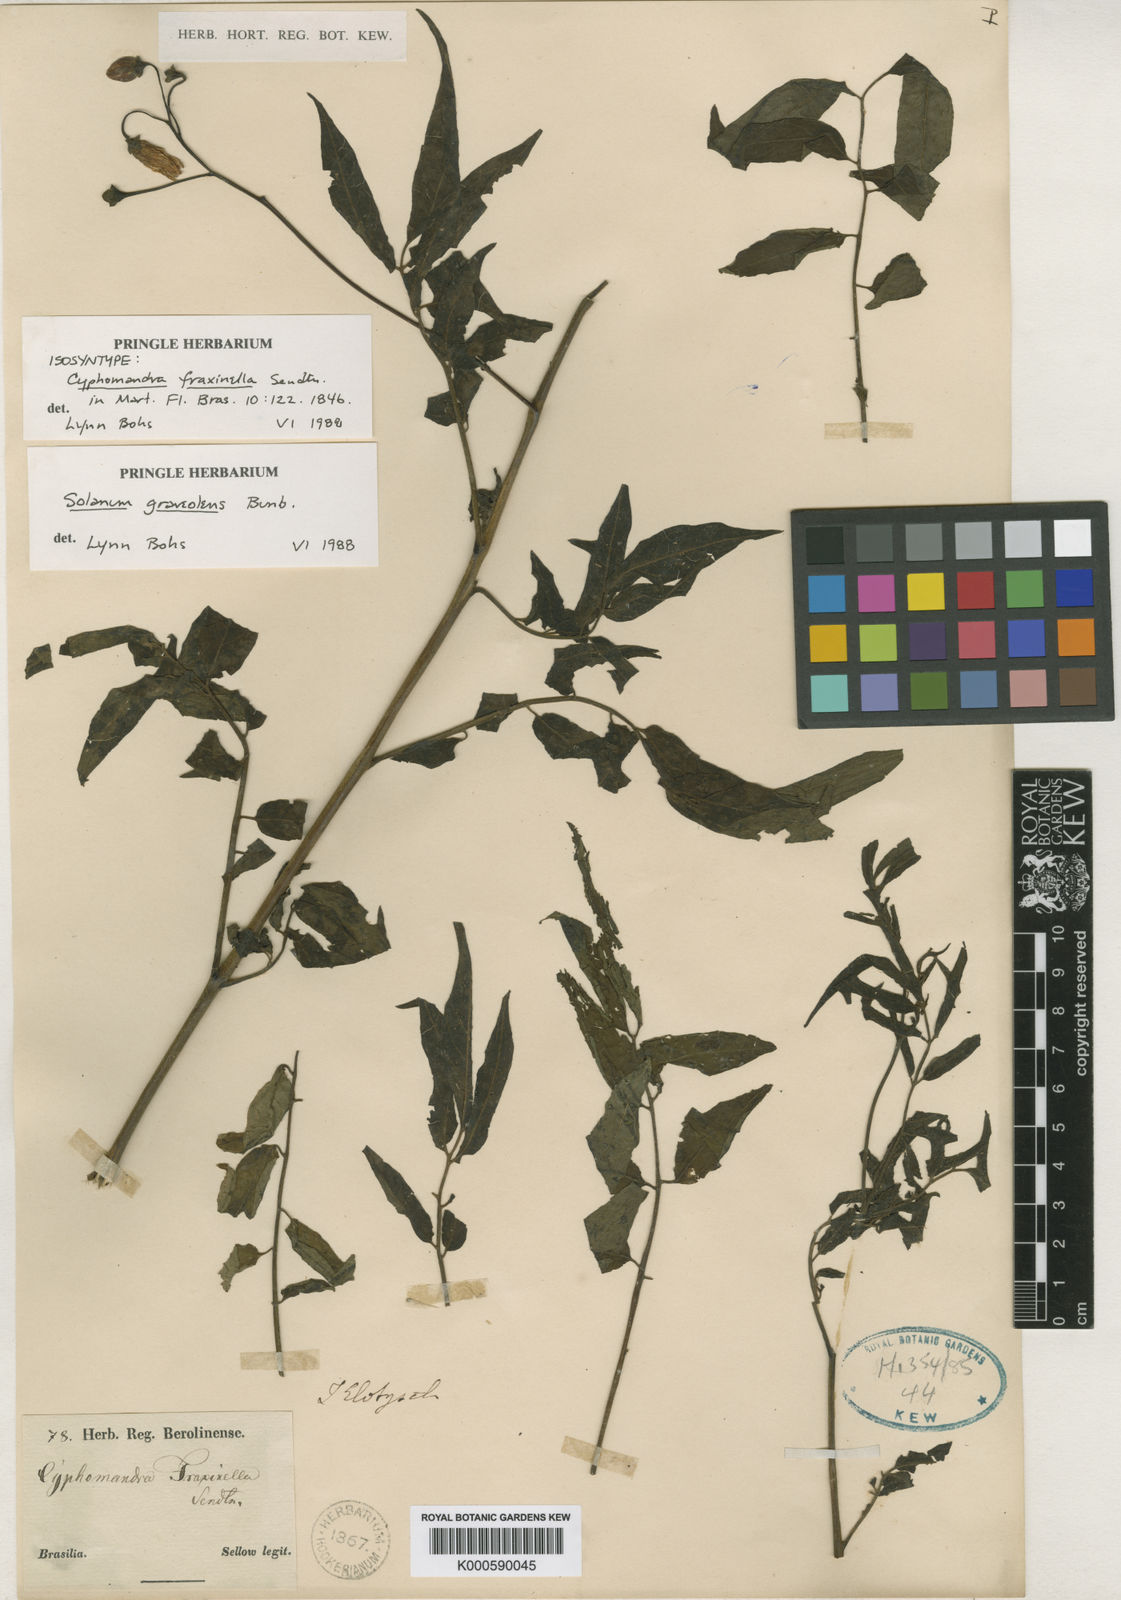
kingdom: Plantae
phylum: Tracheophyta
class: Magnoliopsida
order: Solanales
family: Solanaceae
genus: Solanum
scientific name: Solanum graveolens
